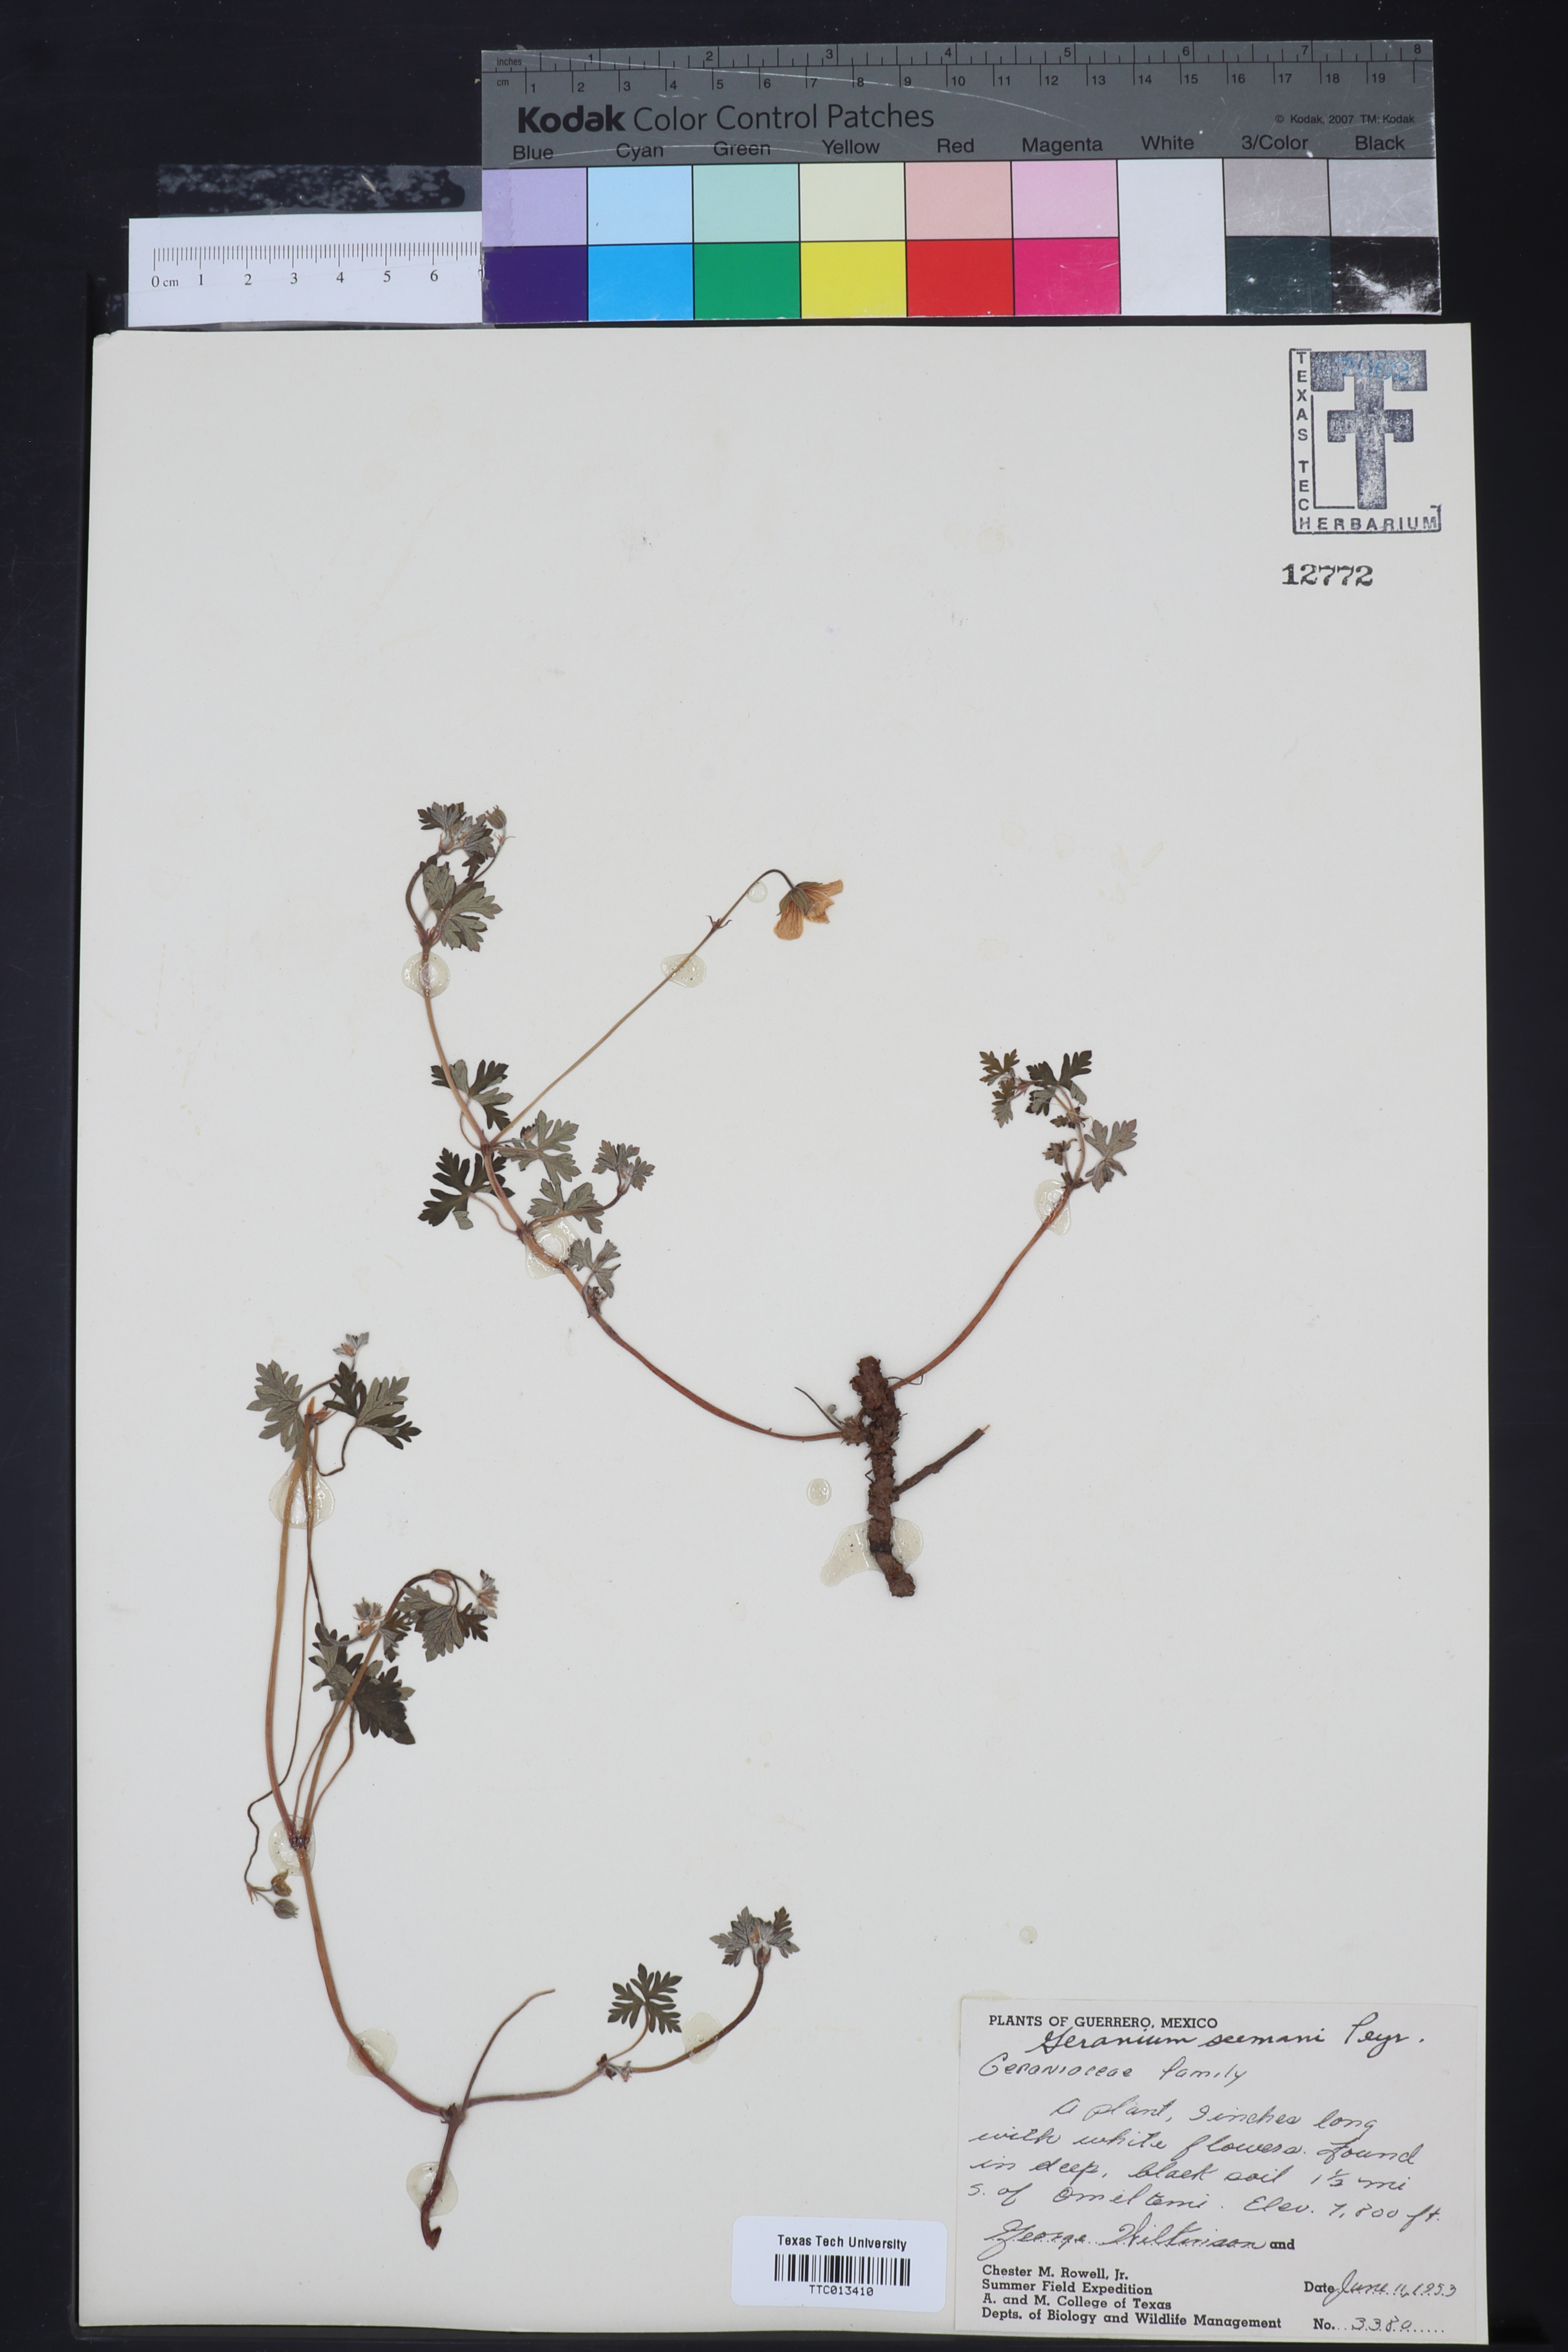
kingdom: Plantae
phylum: Tracheophyta
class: Magnoliopsida
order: Geraniales
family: Geraniaceae
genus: Geranium
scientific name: Geranium seemannii
